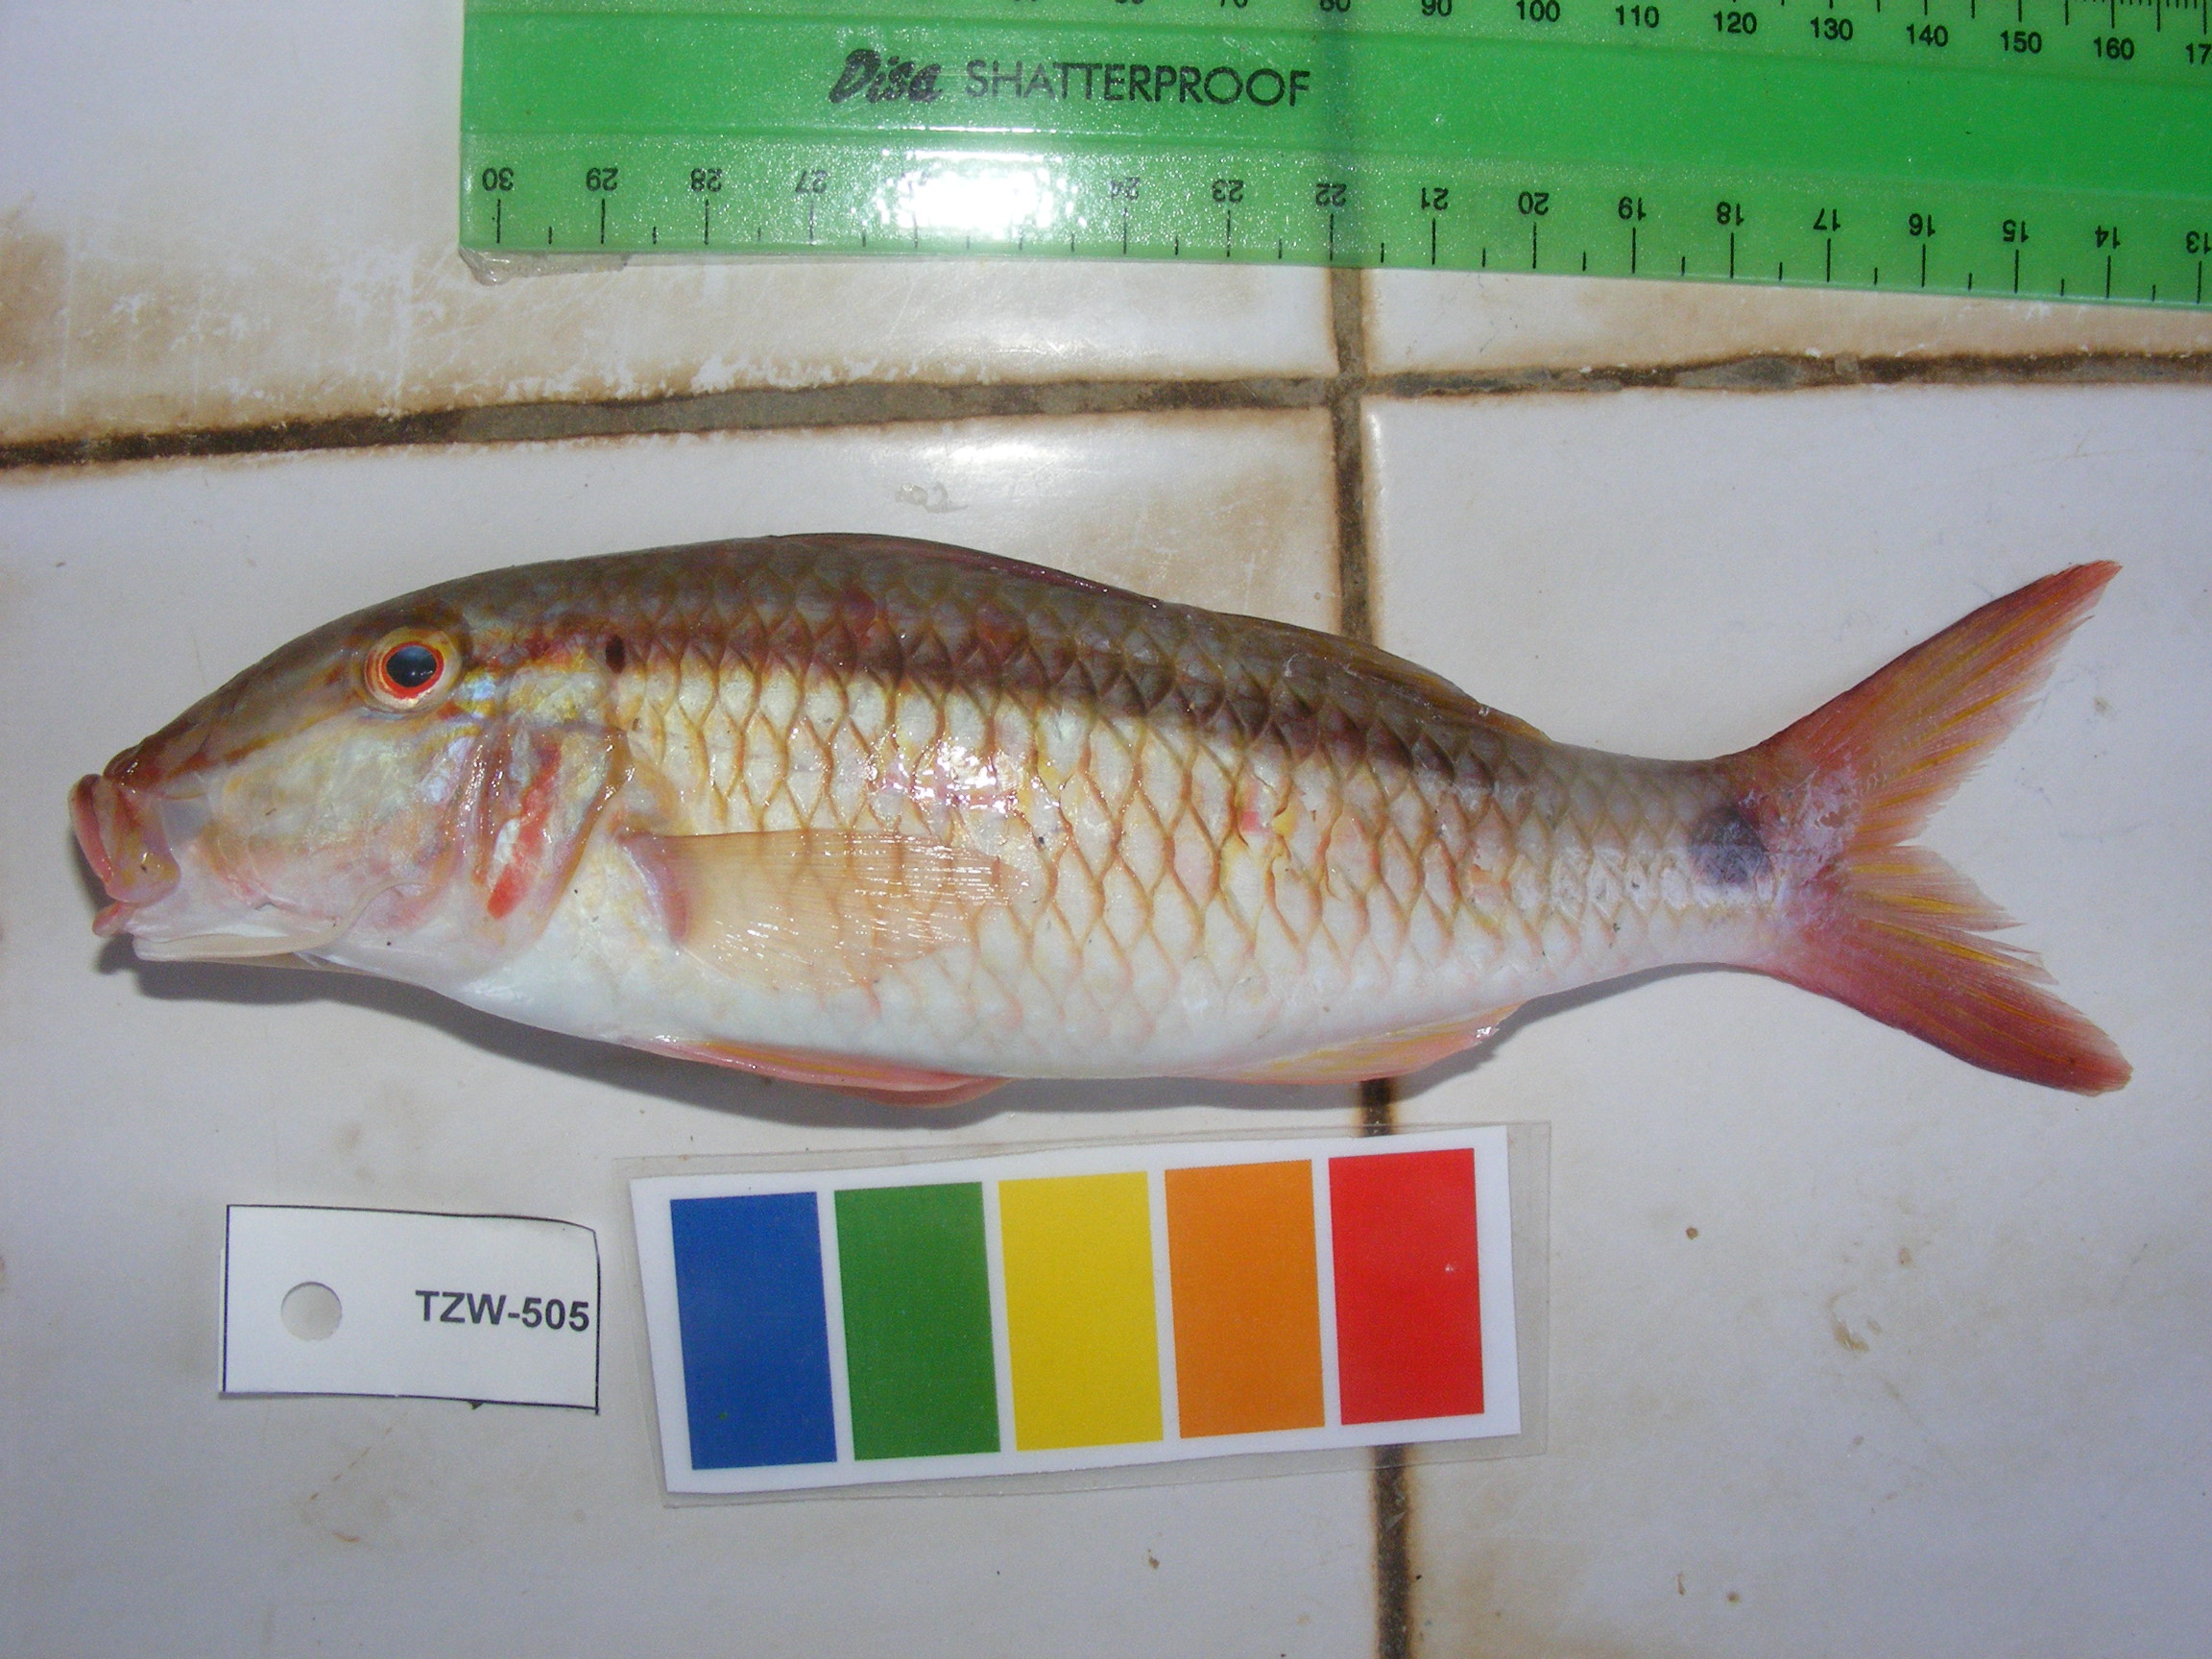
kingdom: Animalia
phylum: Chordata
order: Perciformes
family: Mullidae
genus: Parupeneus
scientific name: Parupeneus barberinus
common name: Dash-and-dot goatfish
